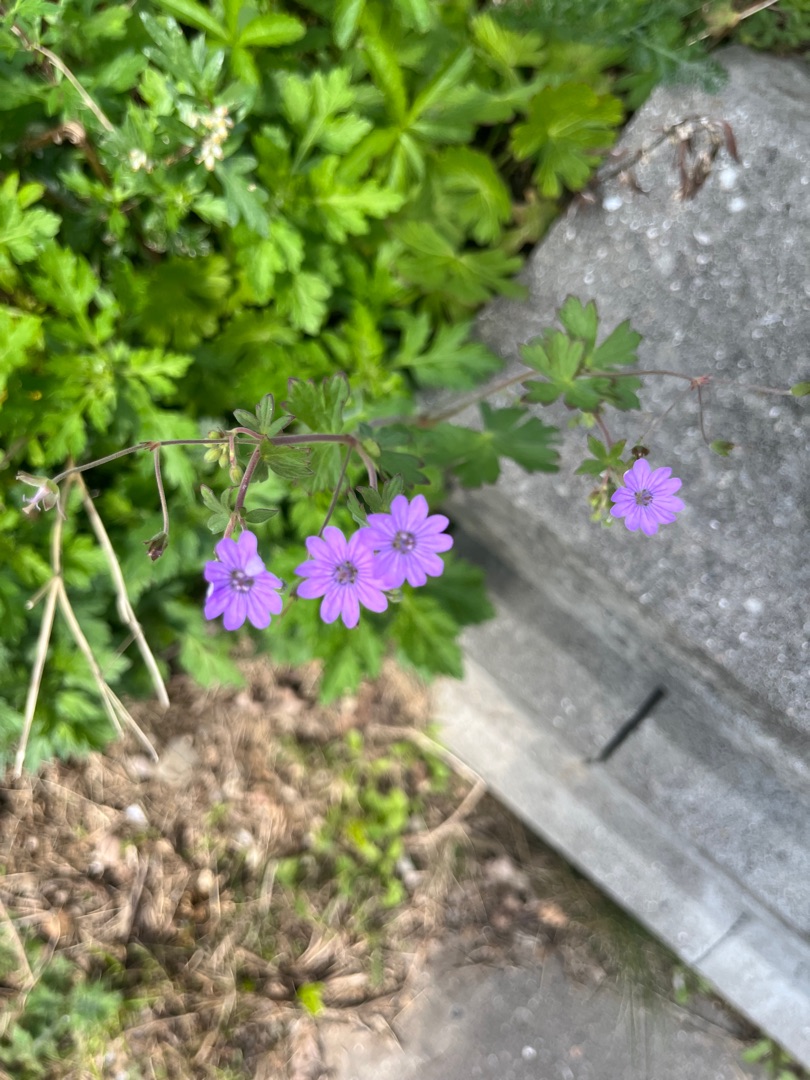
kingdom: Plantae
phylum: Tracheophyta
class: Magnoliopsida
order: Geraniales
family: Geraniaceae
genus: Geranium
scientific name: Geranium pyrenaicum
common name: Pyrenæisk storkenæb
